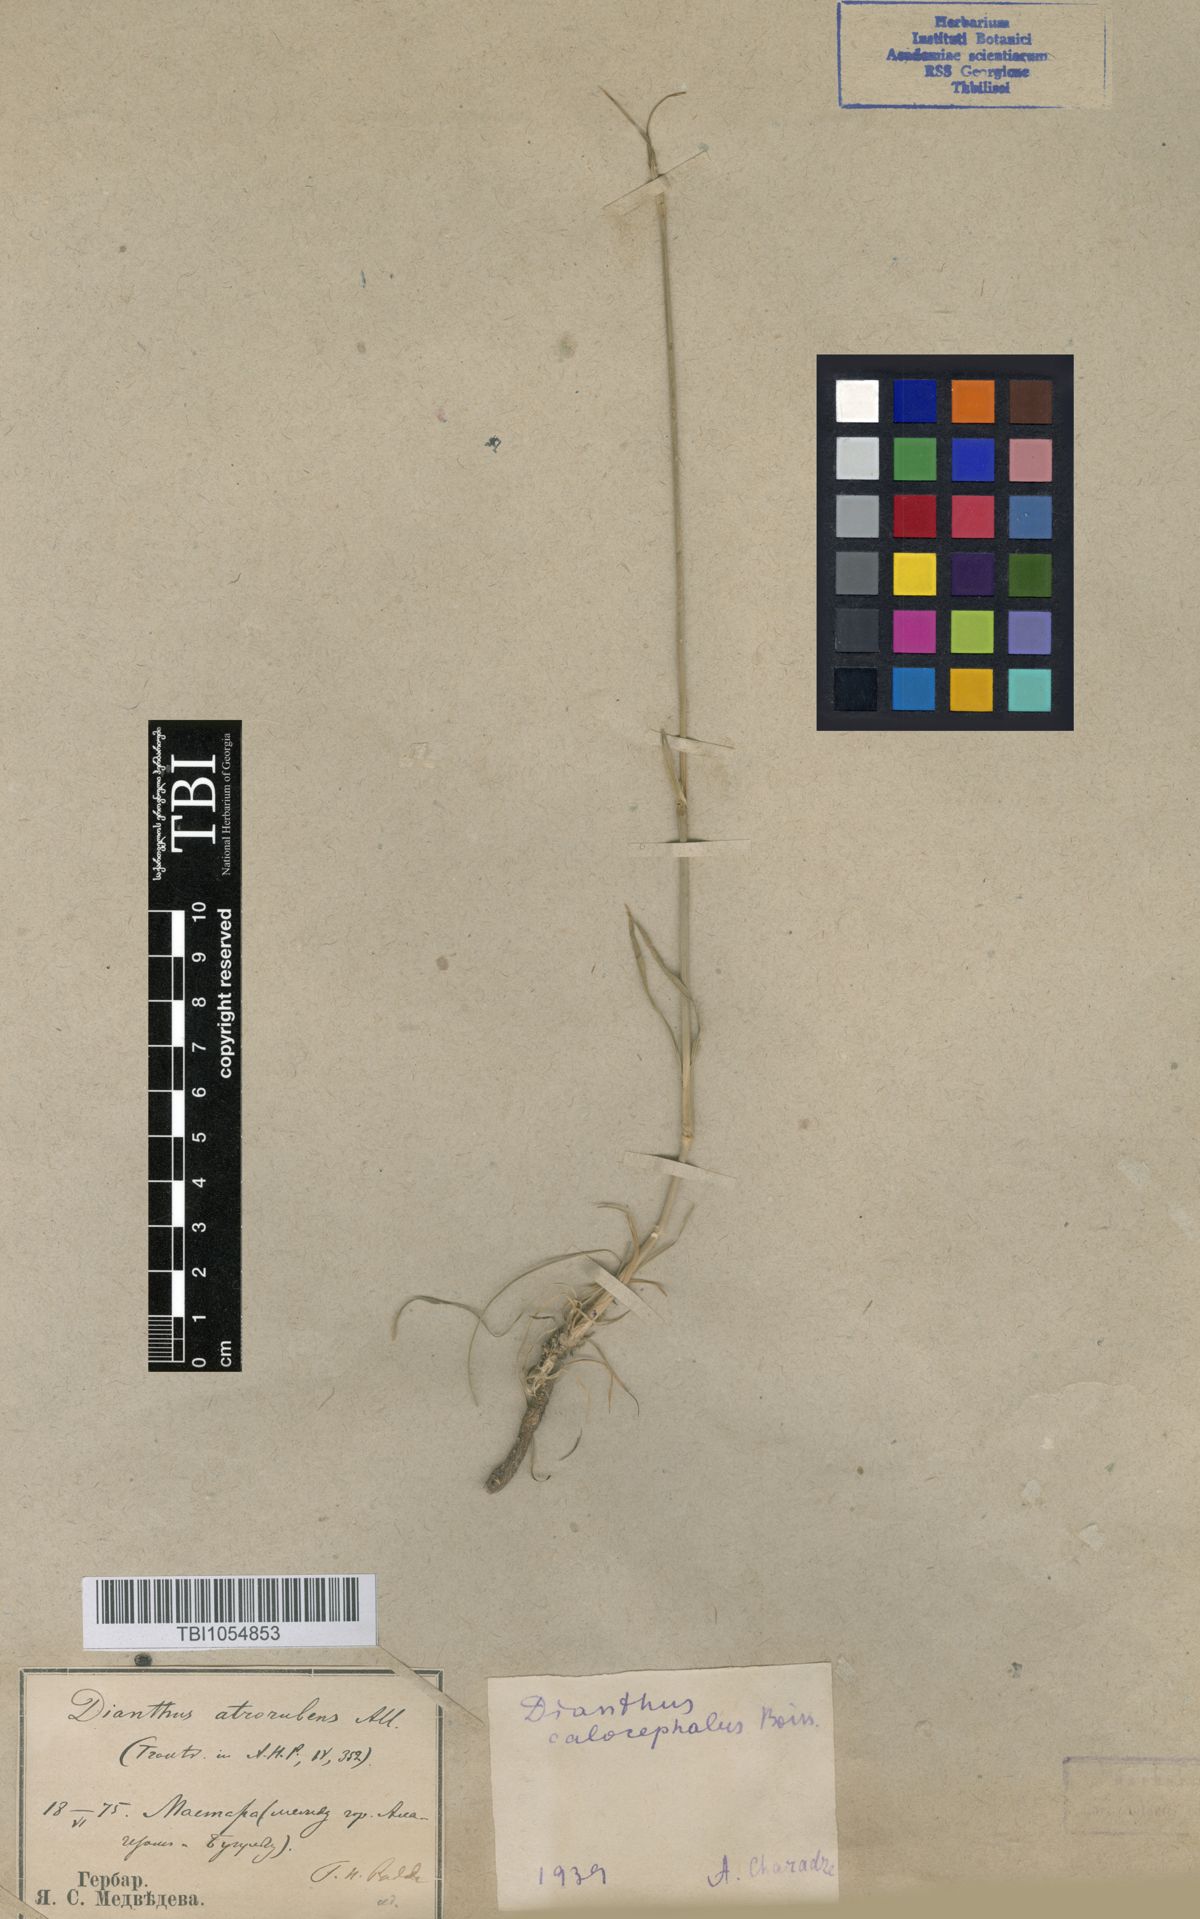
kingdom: Plantae
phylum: Tracheophyta
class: Magnoliopsida
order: Caryophyllales
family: Caryophyllaceae
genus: Dianthus
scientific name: Dianthus cruentus
